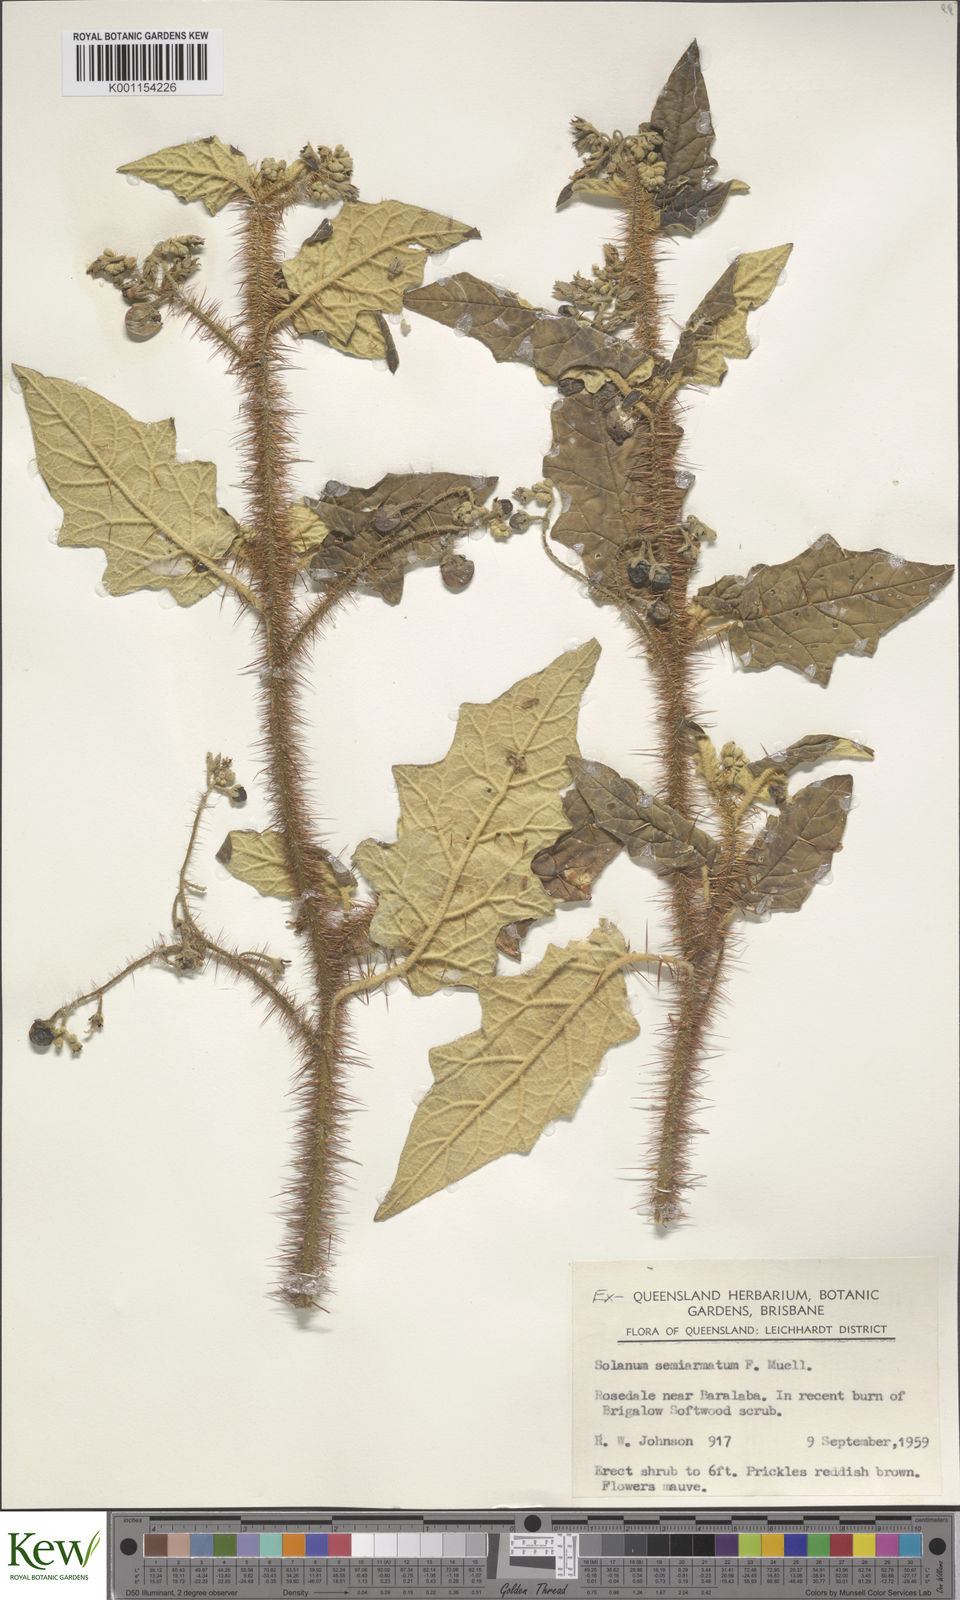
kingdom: Plantae
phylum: Tracheophyta
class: Magnoliopsida
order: Solanales
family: Solanaceae
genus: Solanum
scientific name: Solanum semiarmatum
